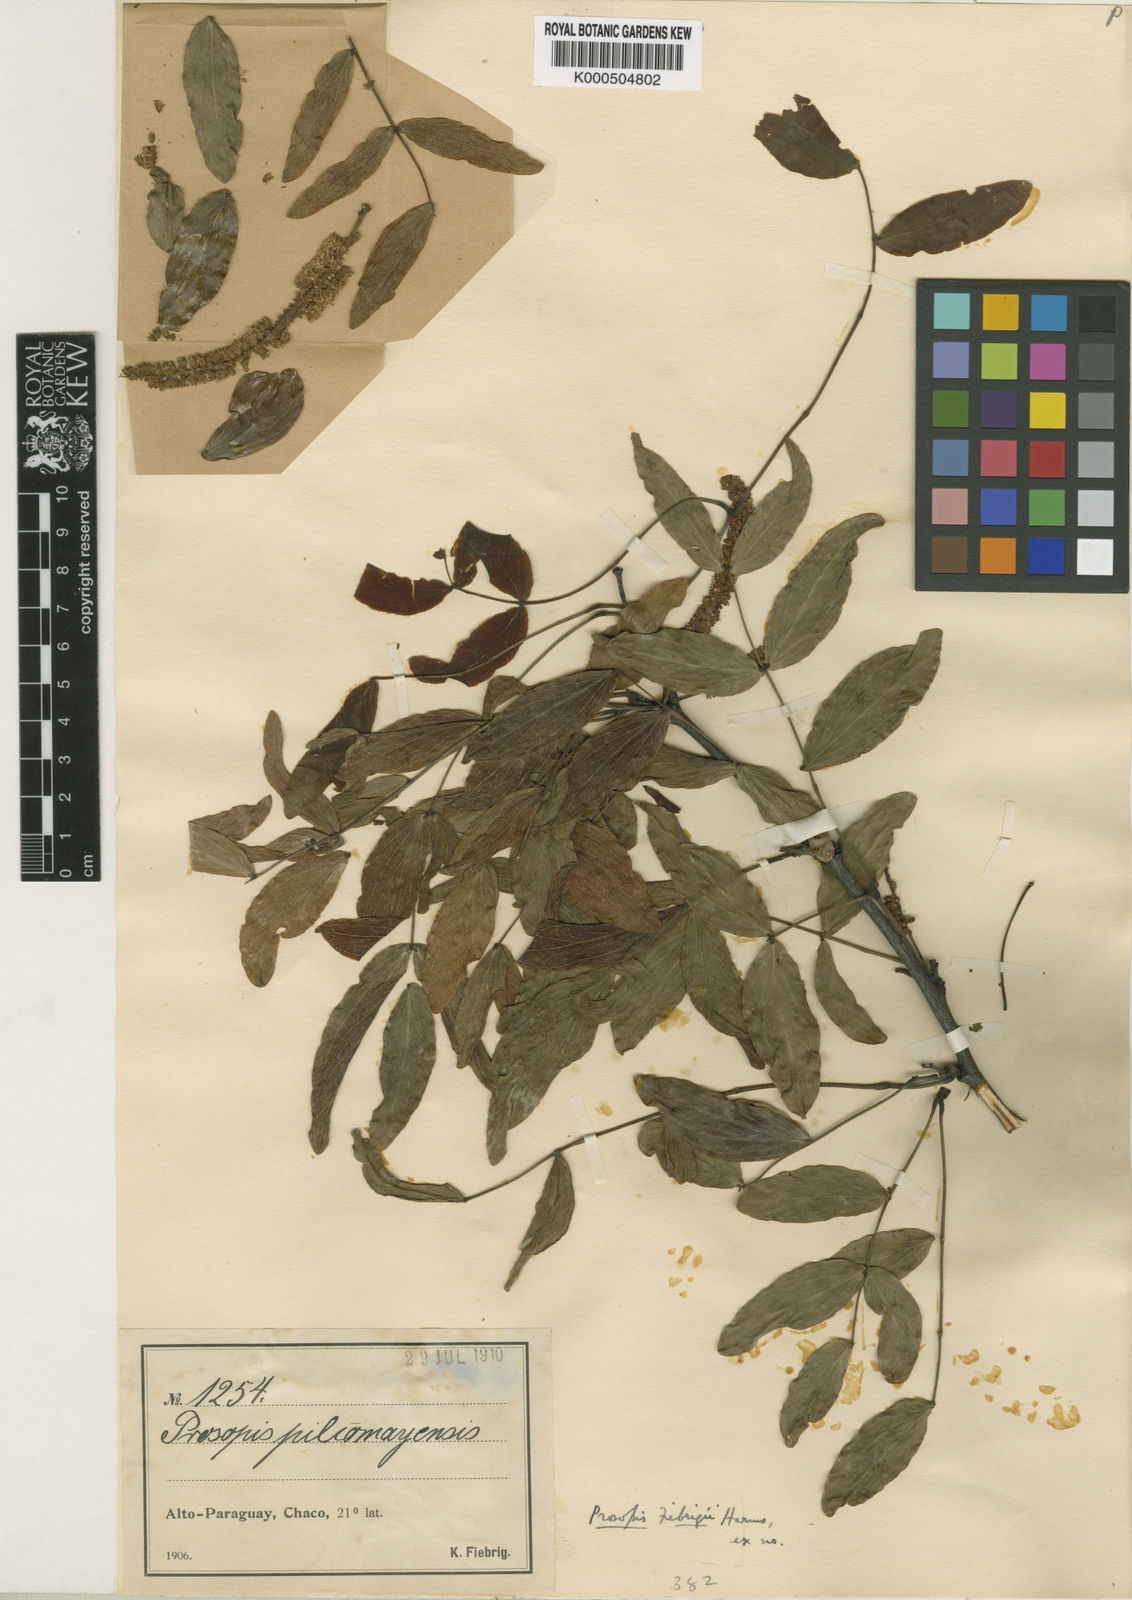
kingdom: Plantae
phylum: Tracheophyta
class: Magnoliopsida
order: Fabales
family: Fabaceae
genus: Prosopis
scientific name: Prosopis fiebrigii
